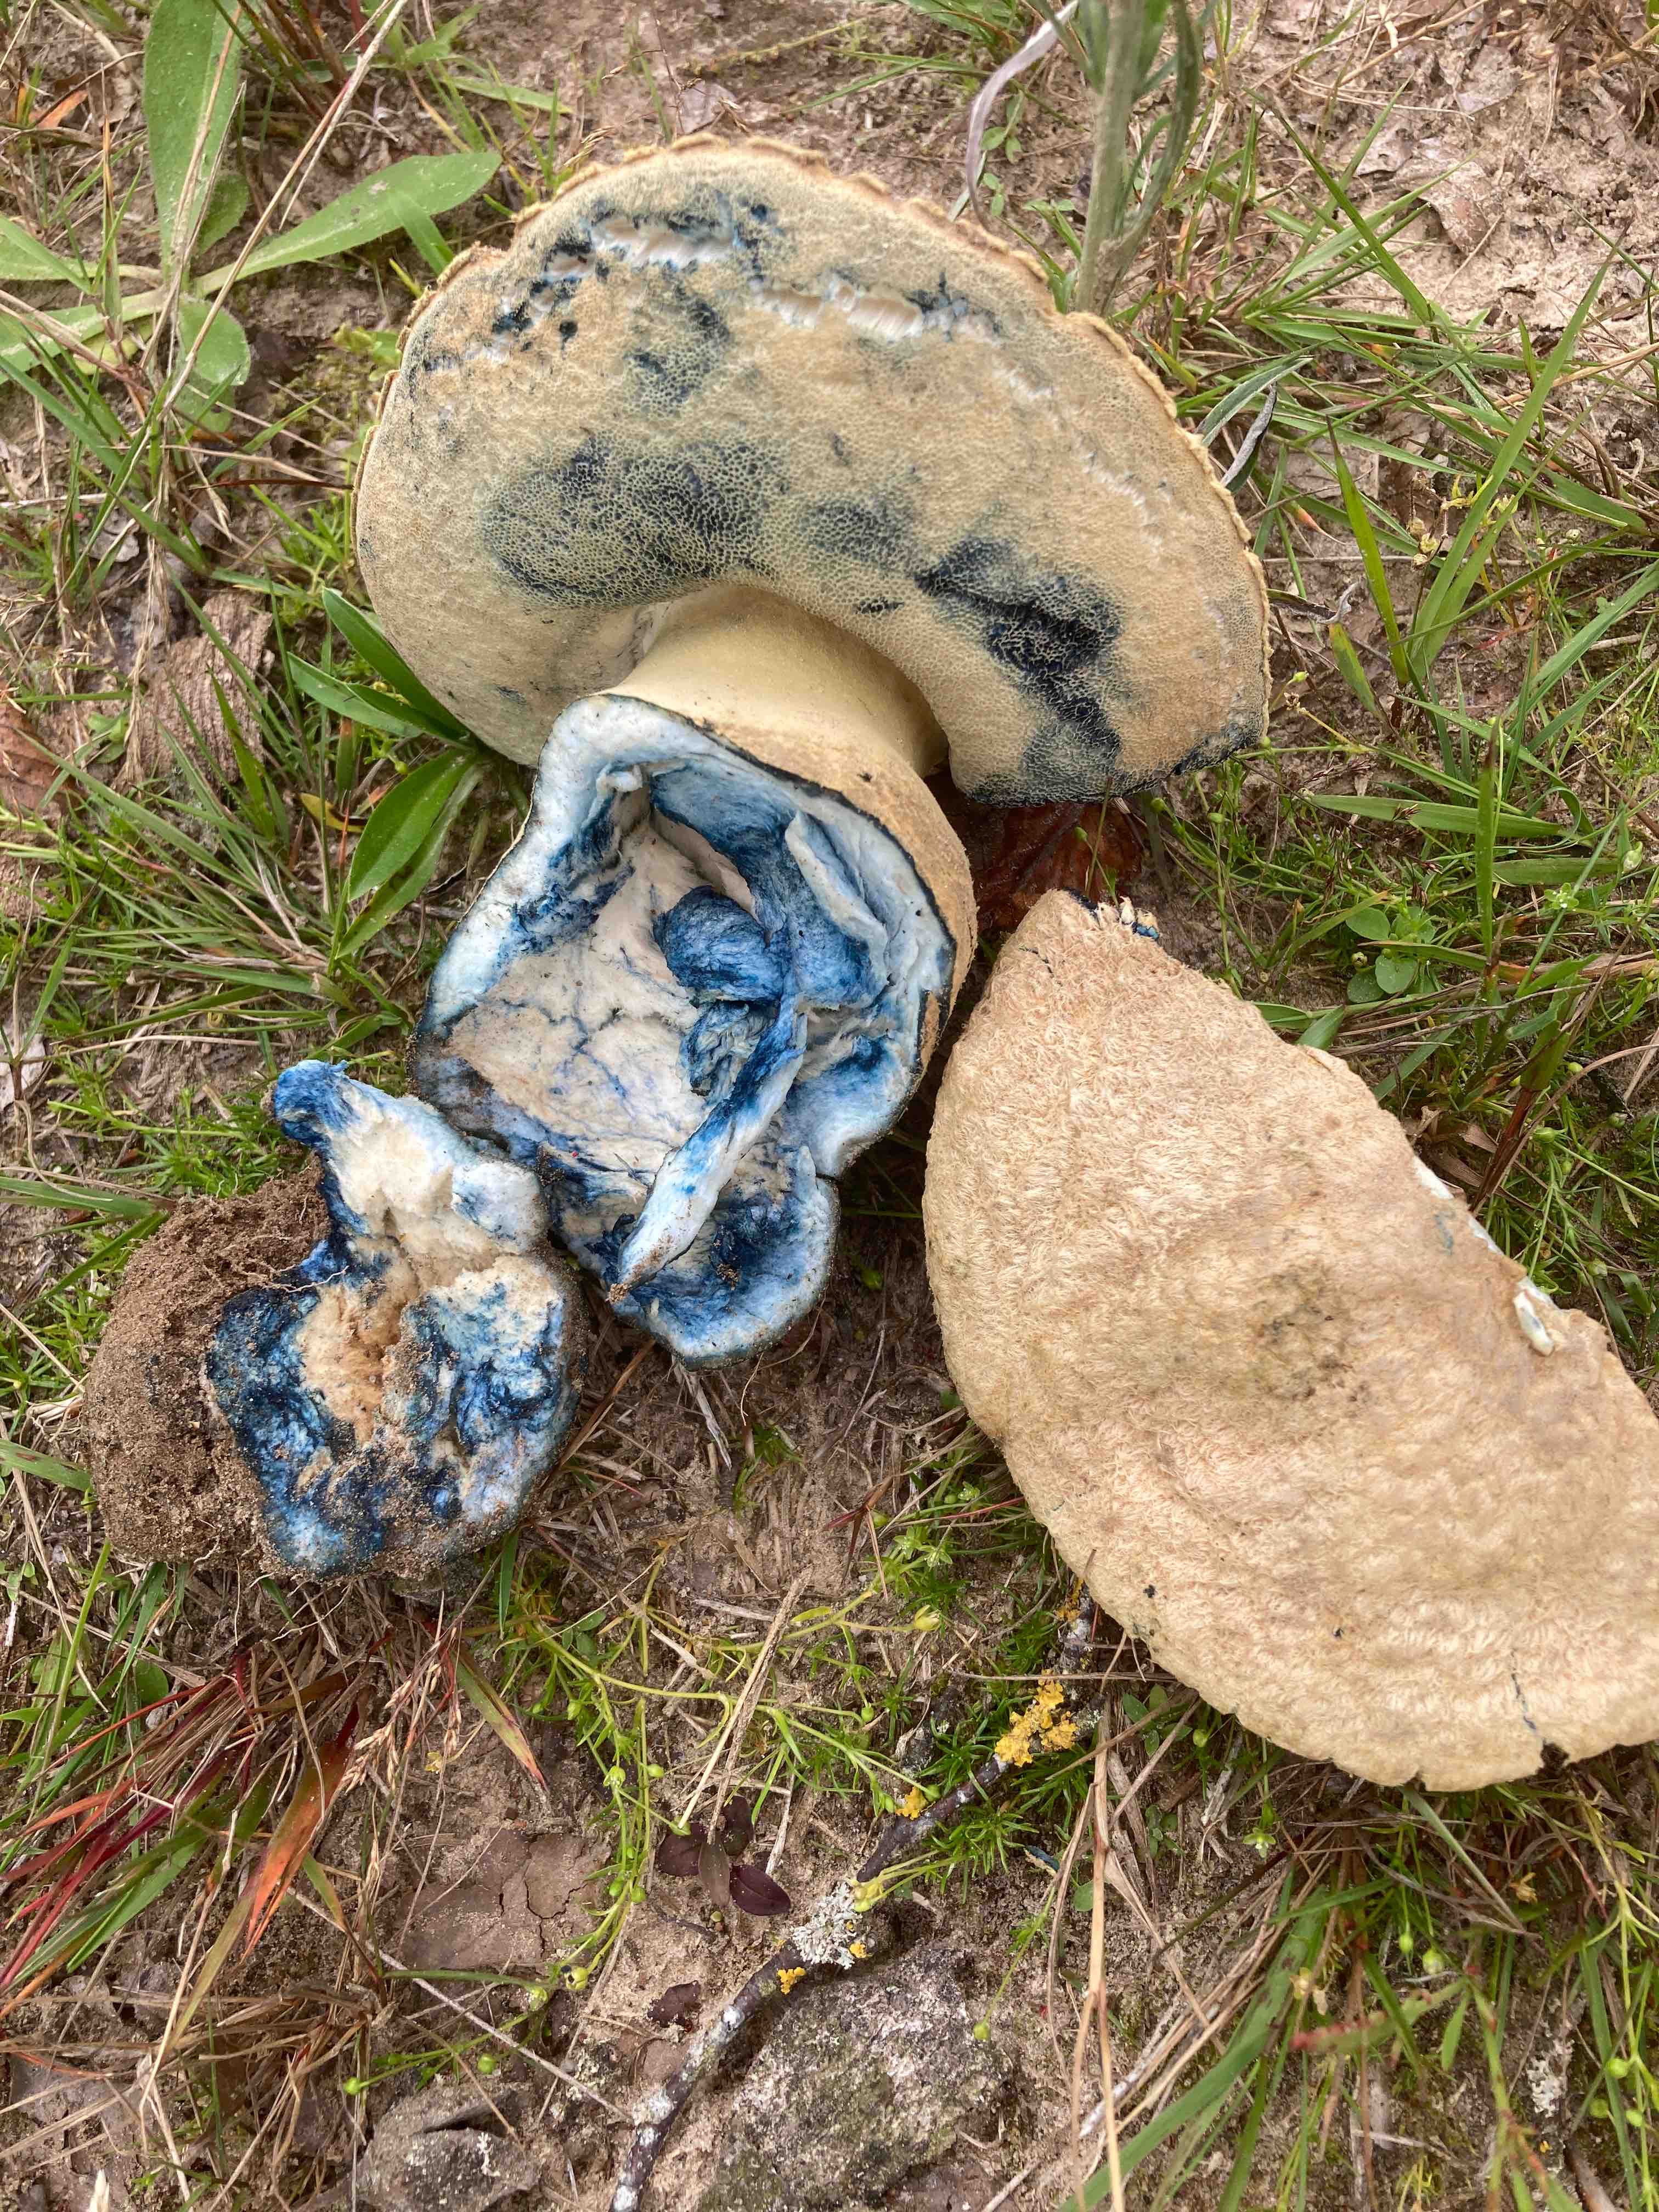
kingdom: Fungi
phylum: Basidiomycota
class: Agaricomycetes
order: Boletales
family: Gyroporaceae
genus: Gyroporus
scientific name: Gyroporus cyanescens
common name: blånende kammerrørhat
